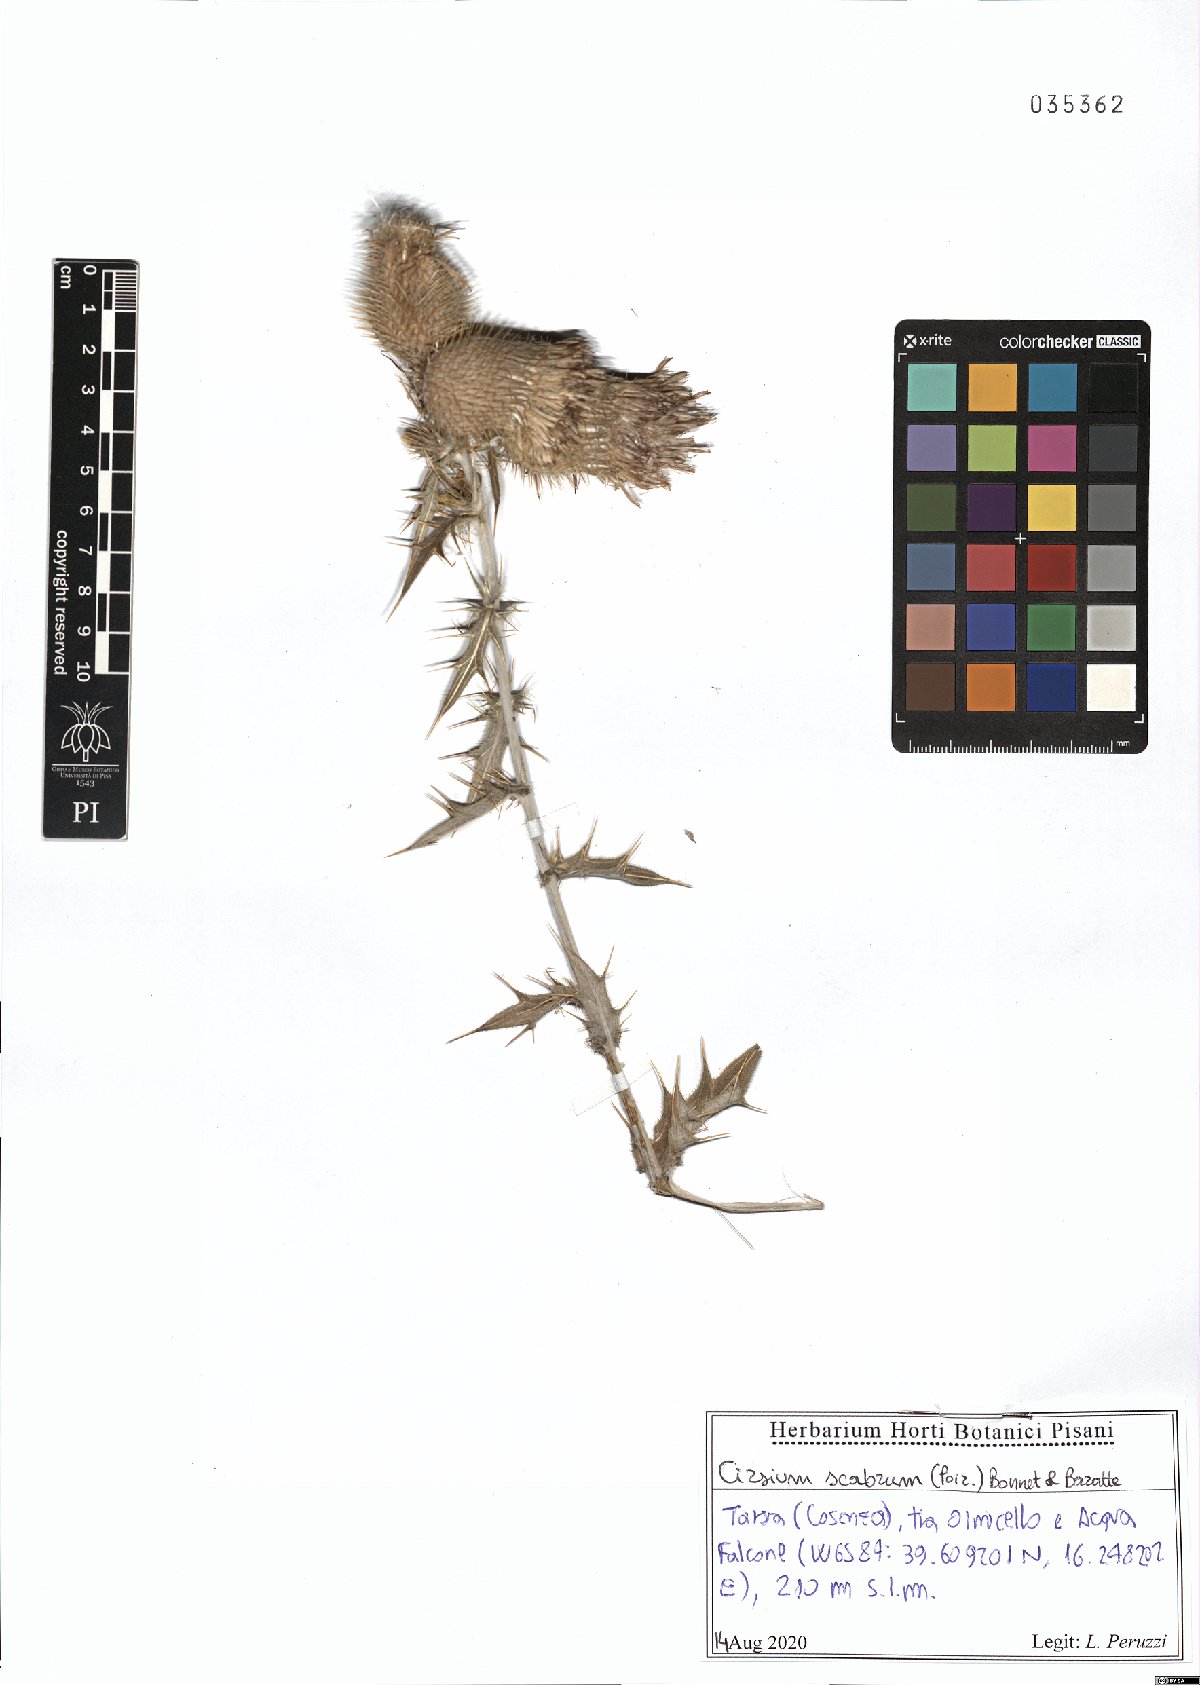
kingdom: Plantae
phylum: Tracheophyta
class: Magnoliopsida
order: Asterales
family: Asteraceae
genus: Lophiolepis
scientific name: Lophiolepis scabra
